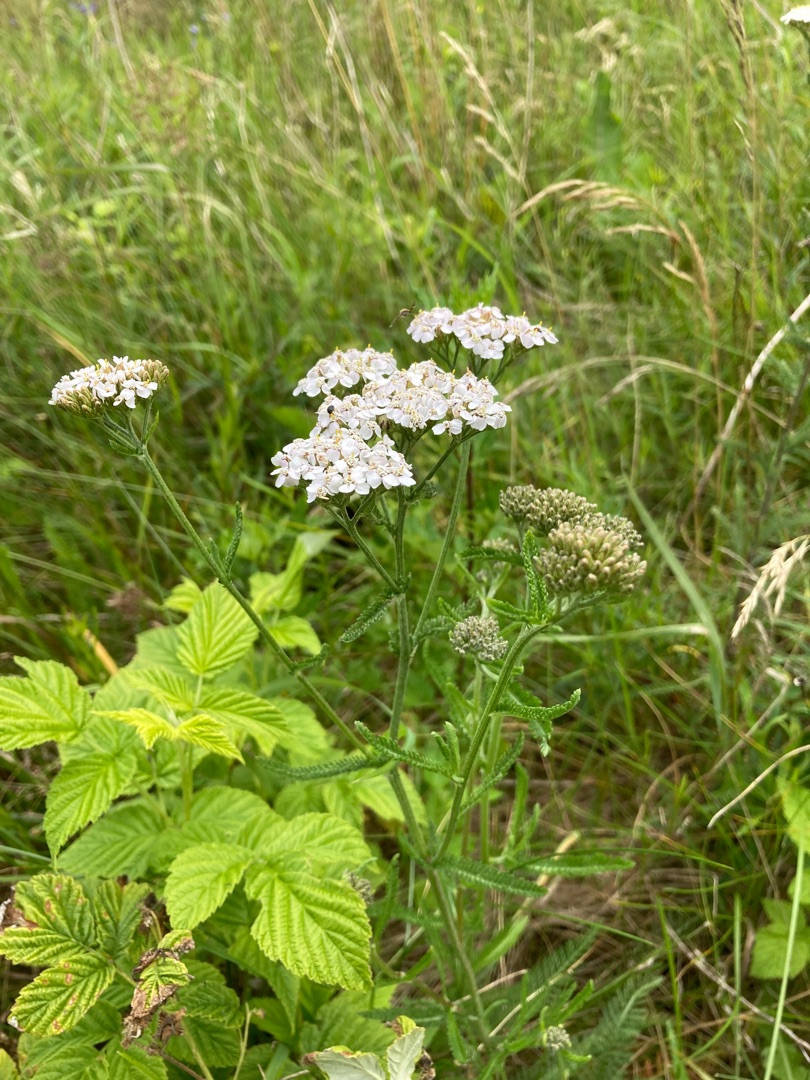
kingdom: Plantae
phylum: Tracheophyta
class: Magnoliopsida
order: Asterales
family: Asteraceae
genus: Achillea
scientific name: Achillea millefolium
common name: Almindelig røllike
